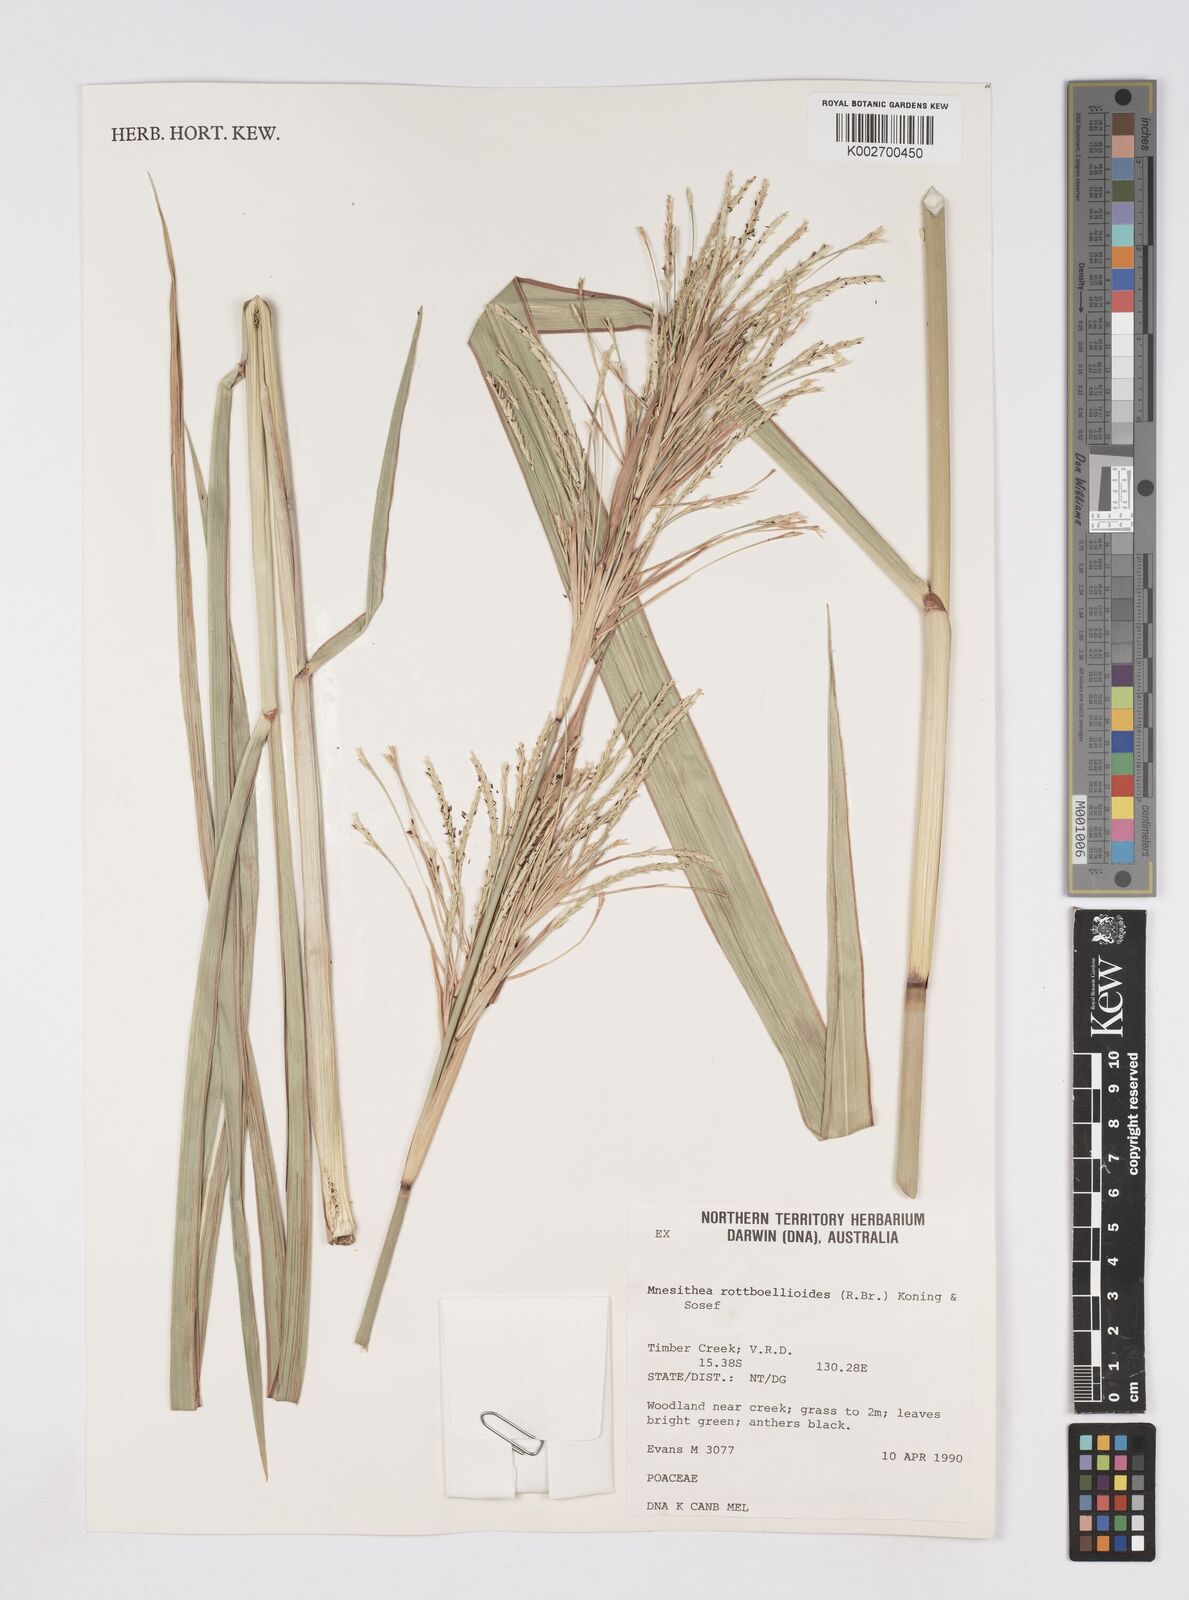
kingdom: Plantae
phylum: Tracheophyta
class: Liliopsida
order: Poales
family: Poaceae
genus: Rottboellia
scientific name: Rottboellia rottboellioides
